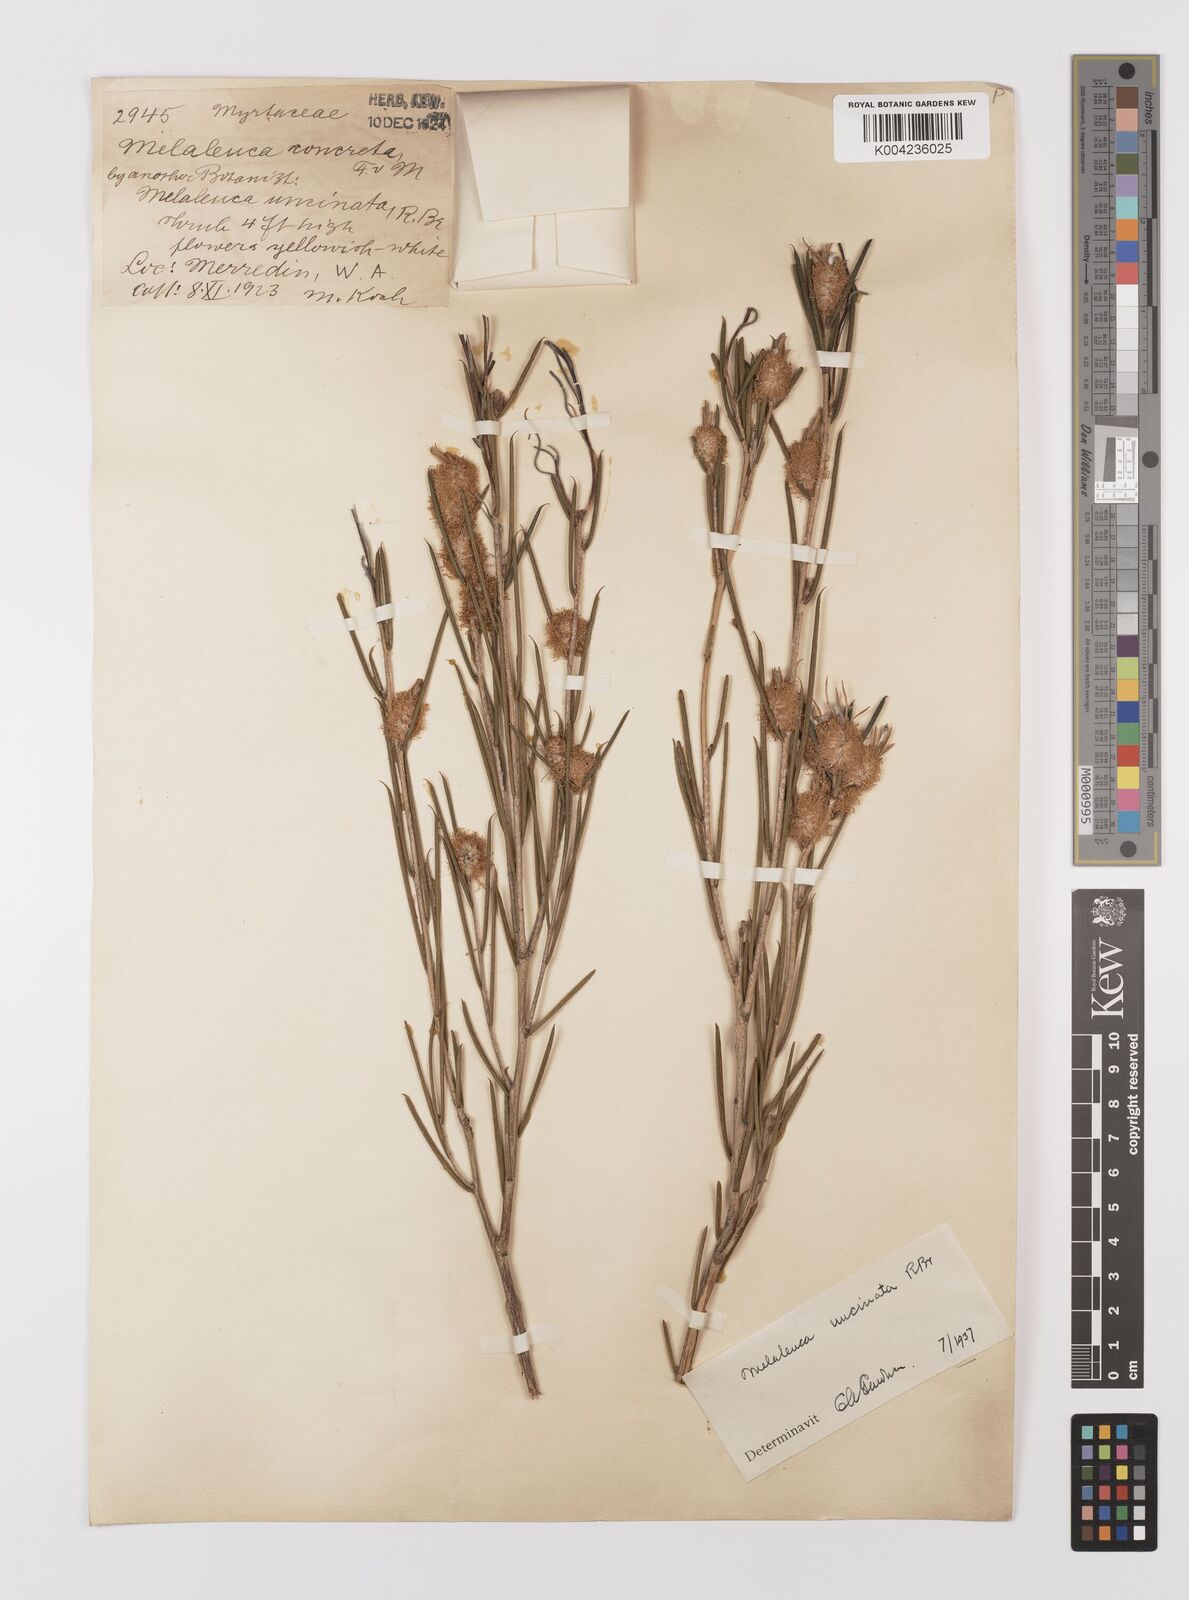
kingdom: Plantae
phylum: Tracheophyta
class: Magnoliopsida
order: Myrtales
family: Myrtaceae
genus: Melaleuca
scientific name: Melaleuca uncinata
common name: Broom honey myrtle
